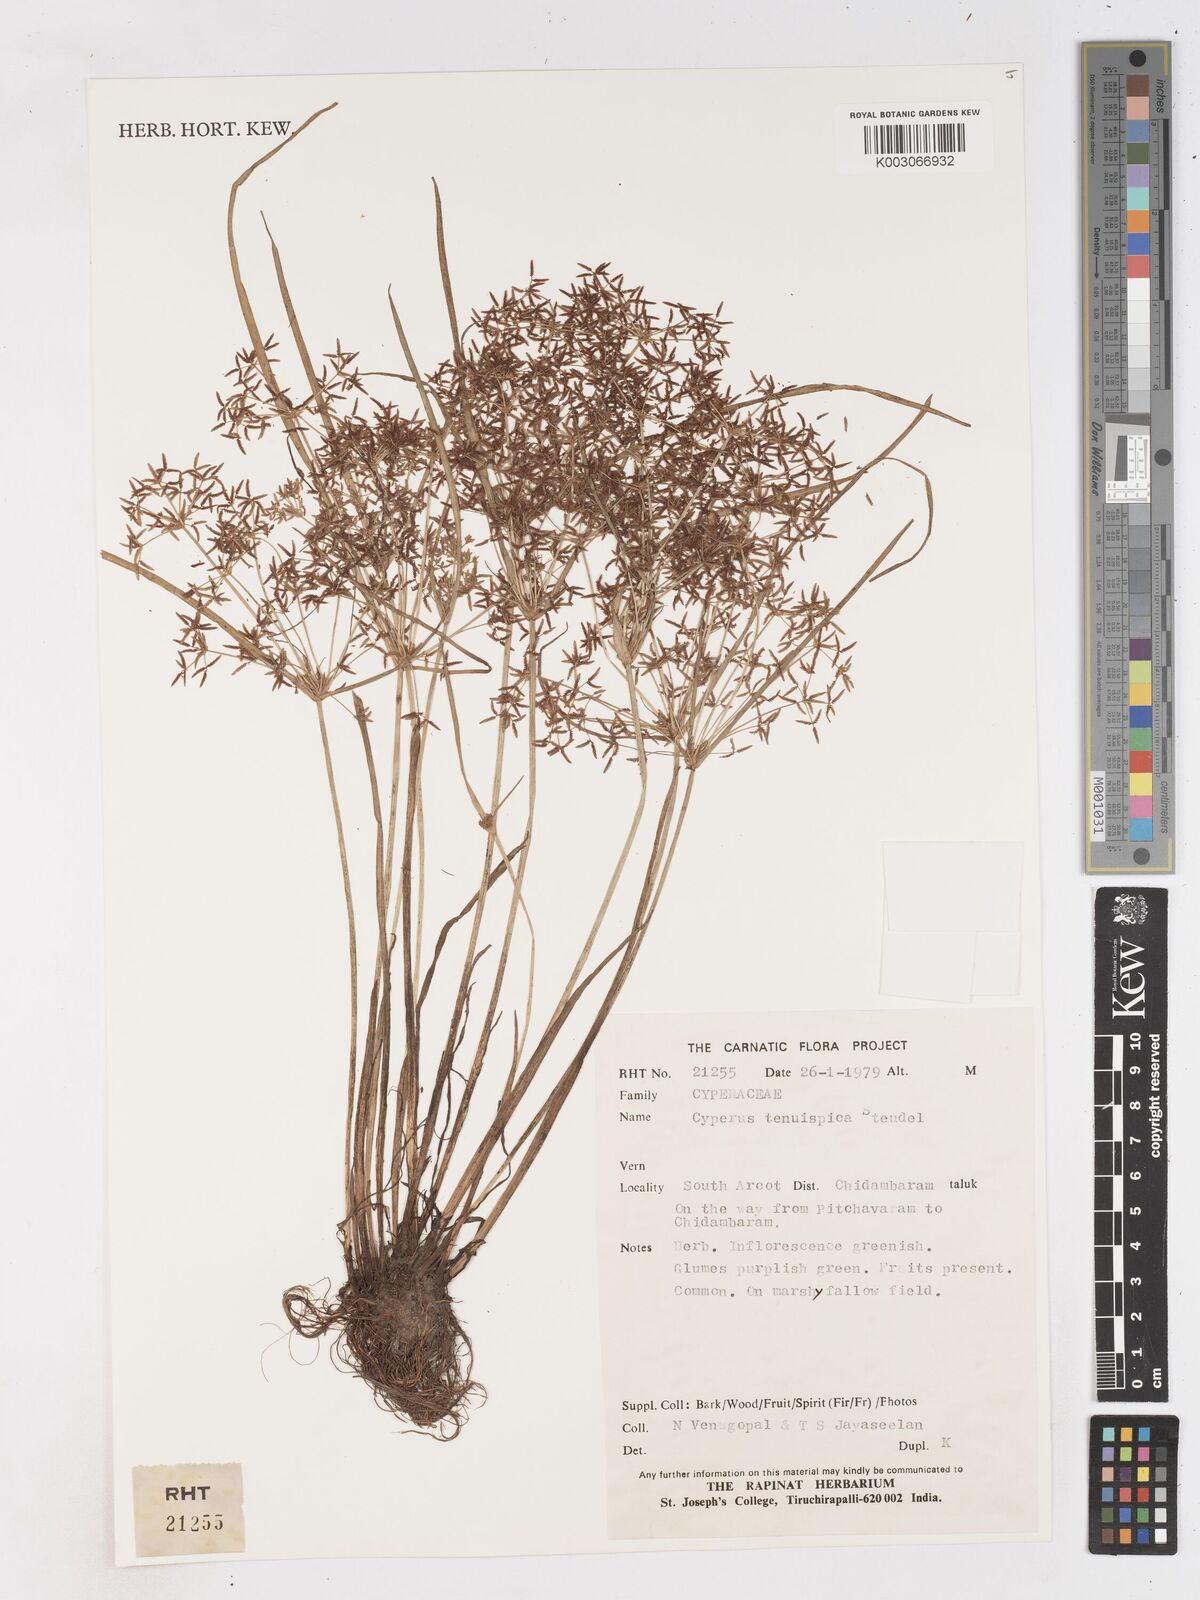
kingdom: Plantae
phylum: Tracheophyta
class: Liliopsida
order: Poales
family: Cyperaceae
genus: Cyperus
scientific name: Cyperus tenuispica
